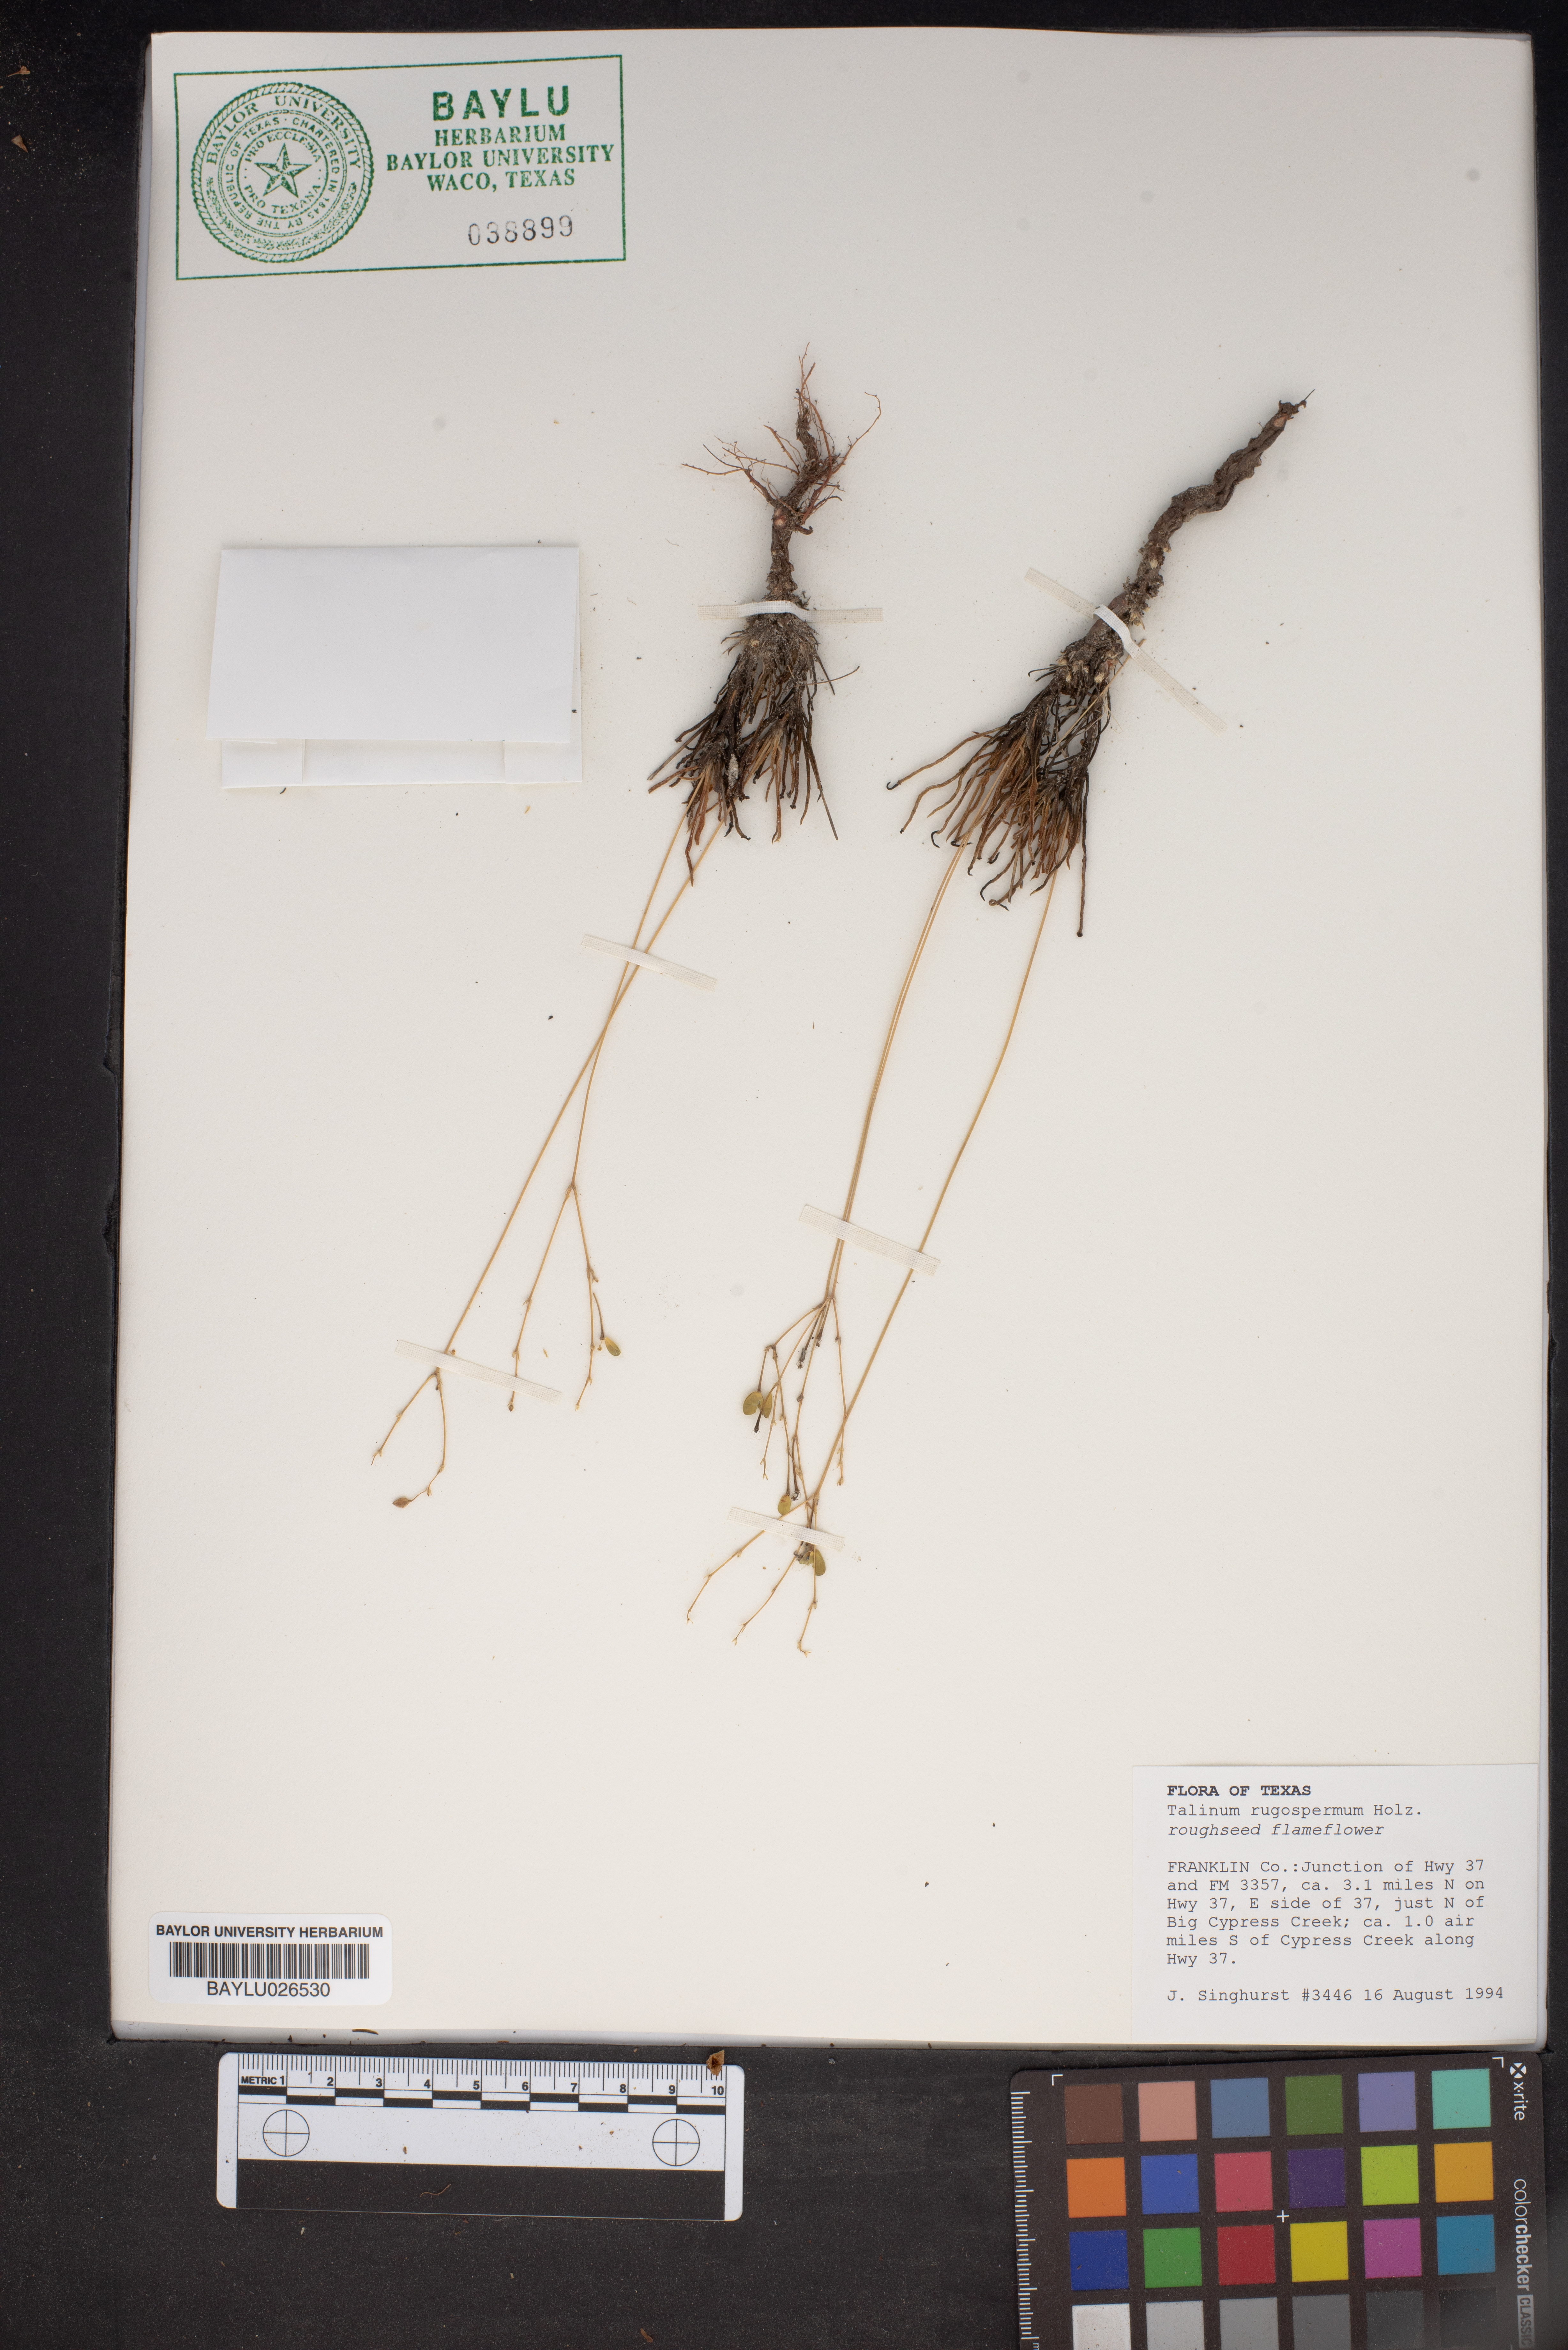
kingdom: Plantae
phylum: Tracheophyta
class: Magnoliopsida
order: Caryophyllales
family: Montiaceae
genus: Phemeranthus
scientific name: Phemeranthus rugospermus
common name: Prairie fameflower
